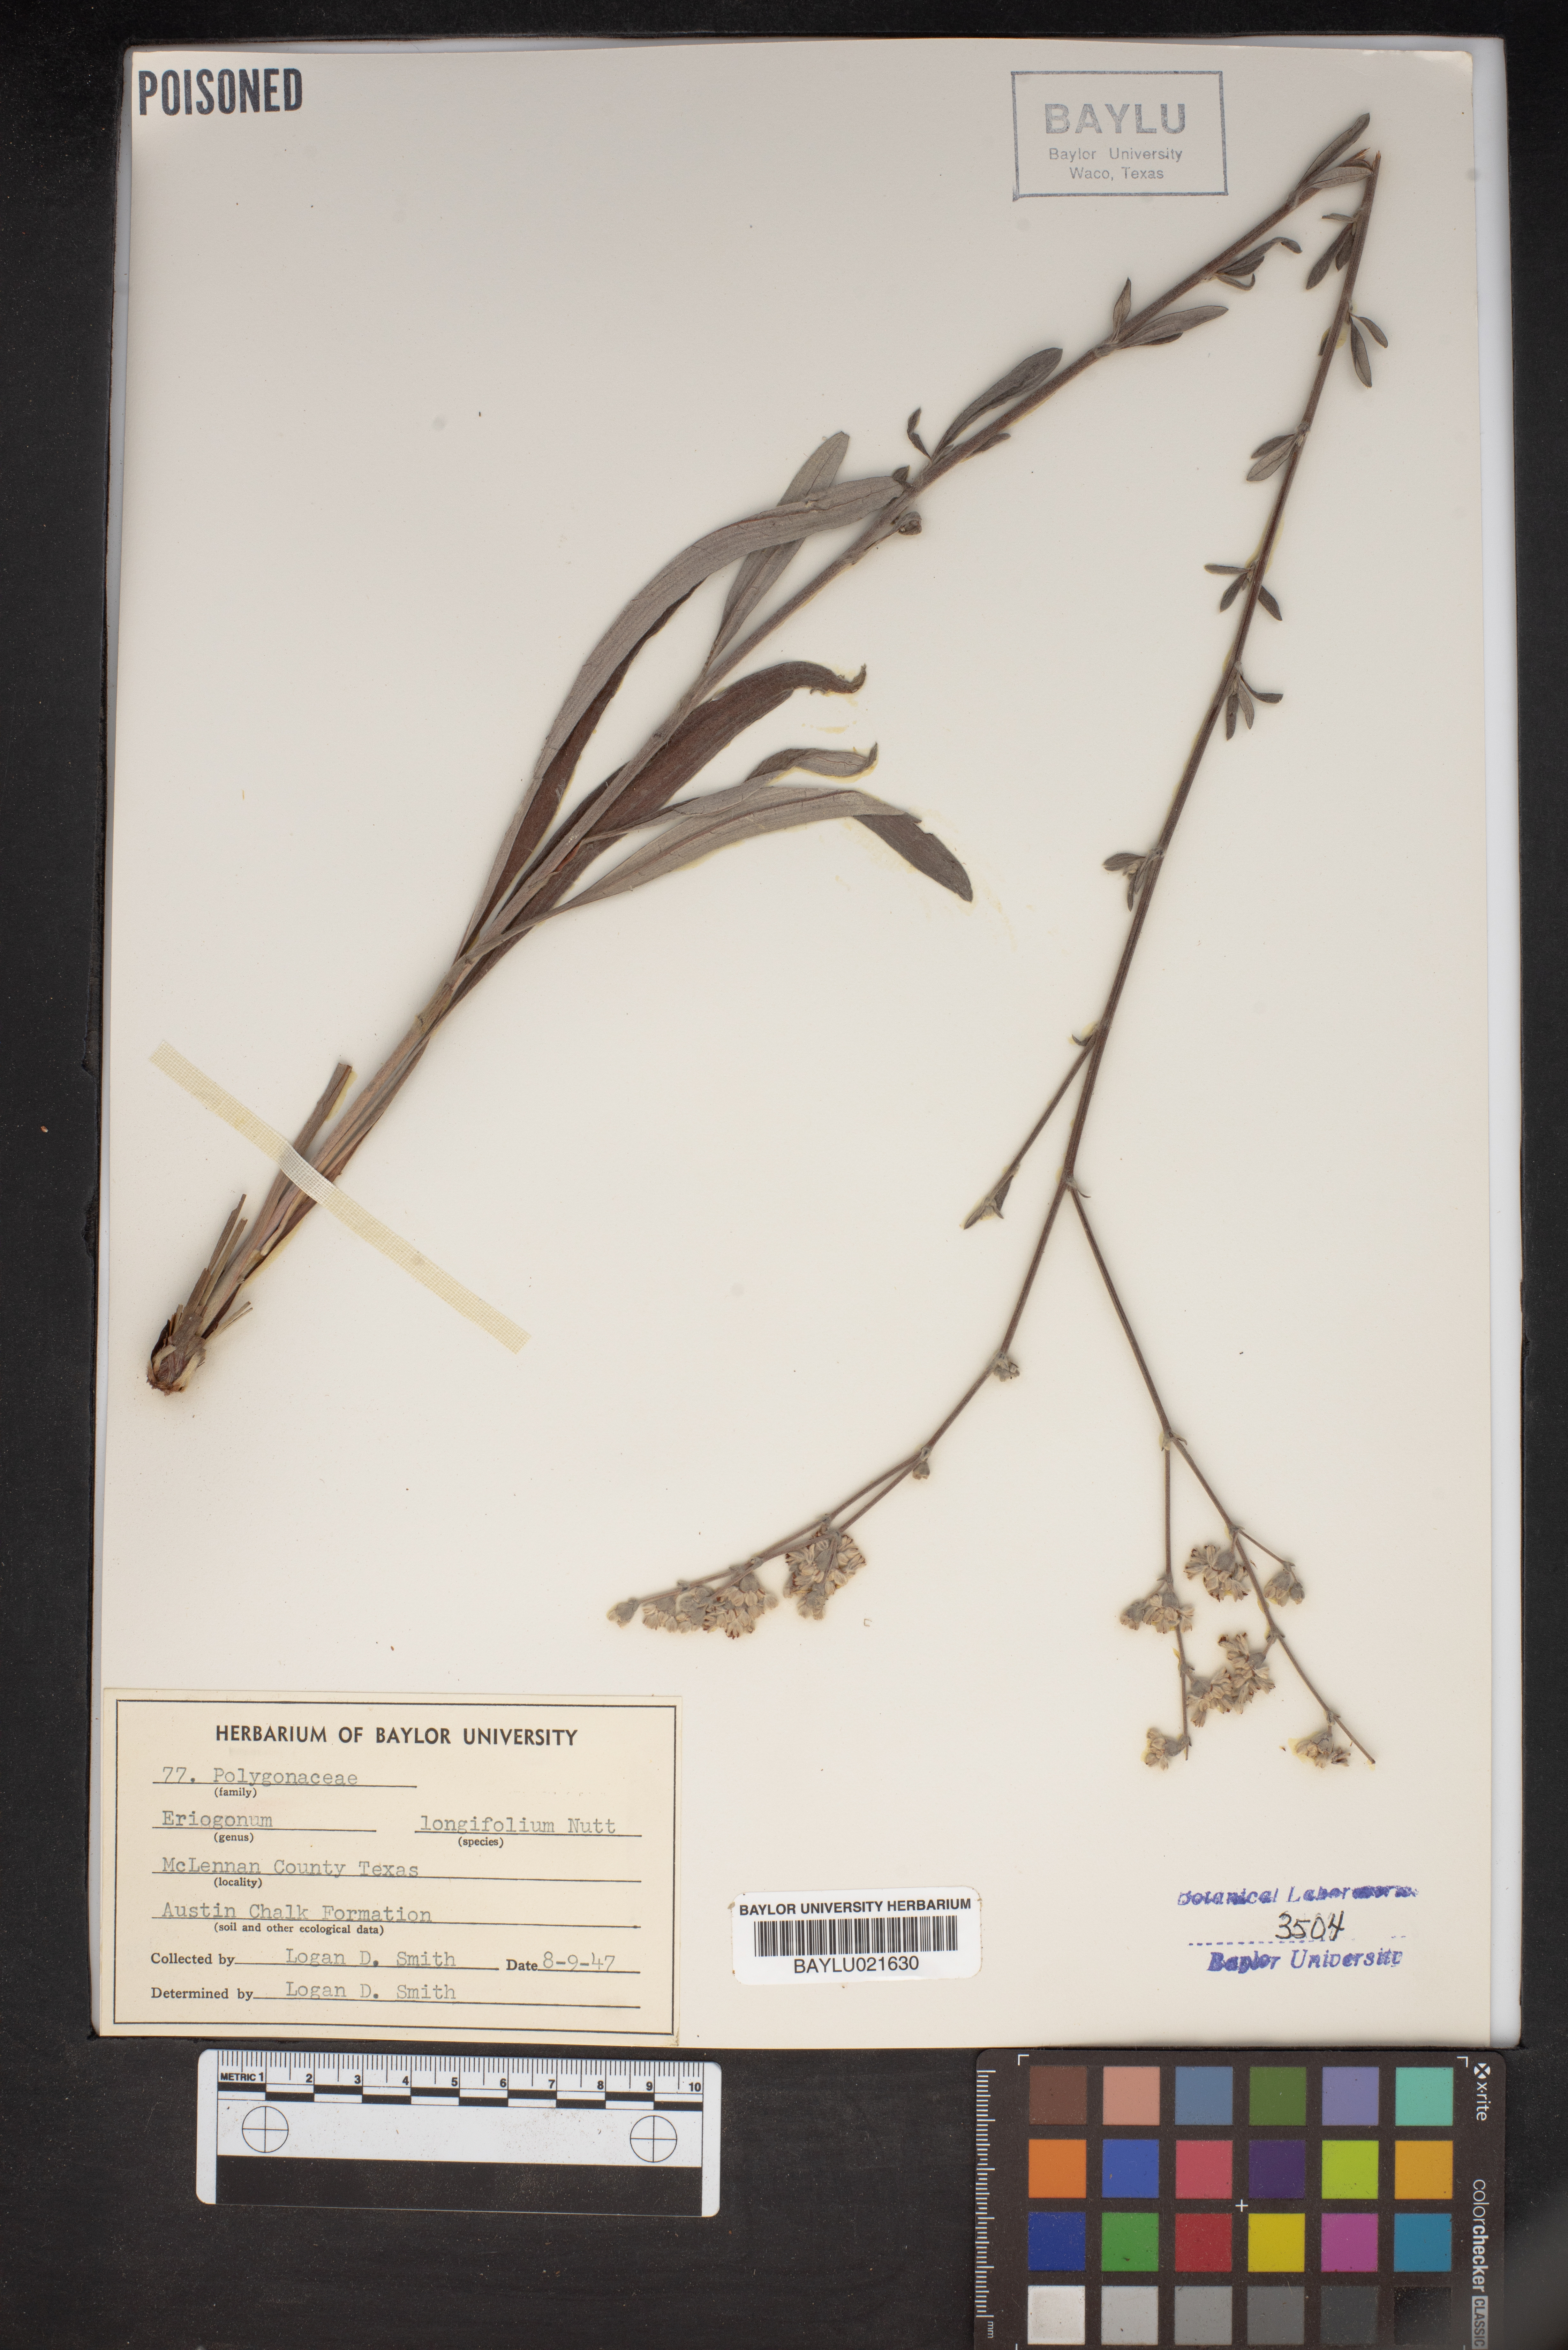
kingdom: Plantae
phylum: Tracheophyta
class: Magnoliopsida
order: Caryophyllales
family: Polygonaceae
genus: Eriogonum
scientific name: Eriogonum longifolium
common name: Longleaf wild buckwheat
